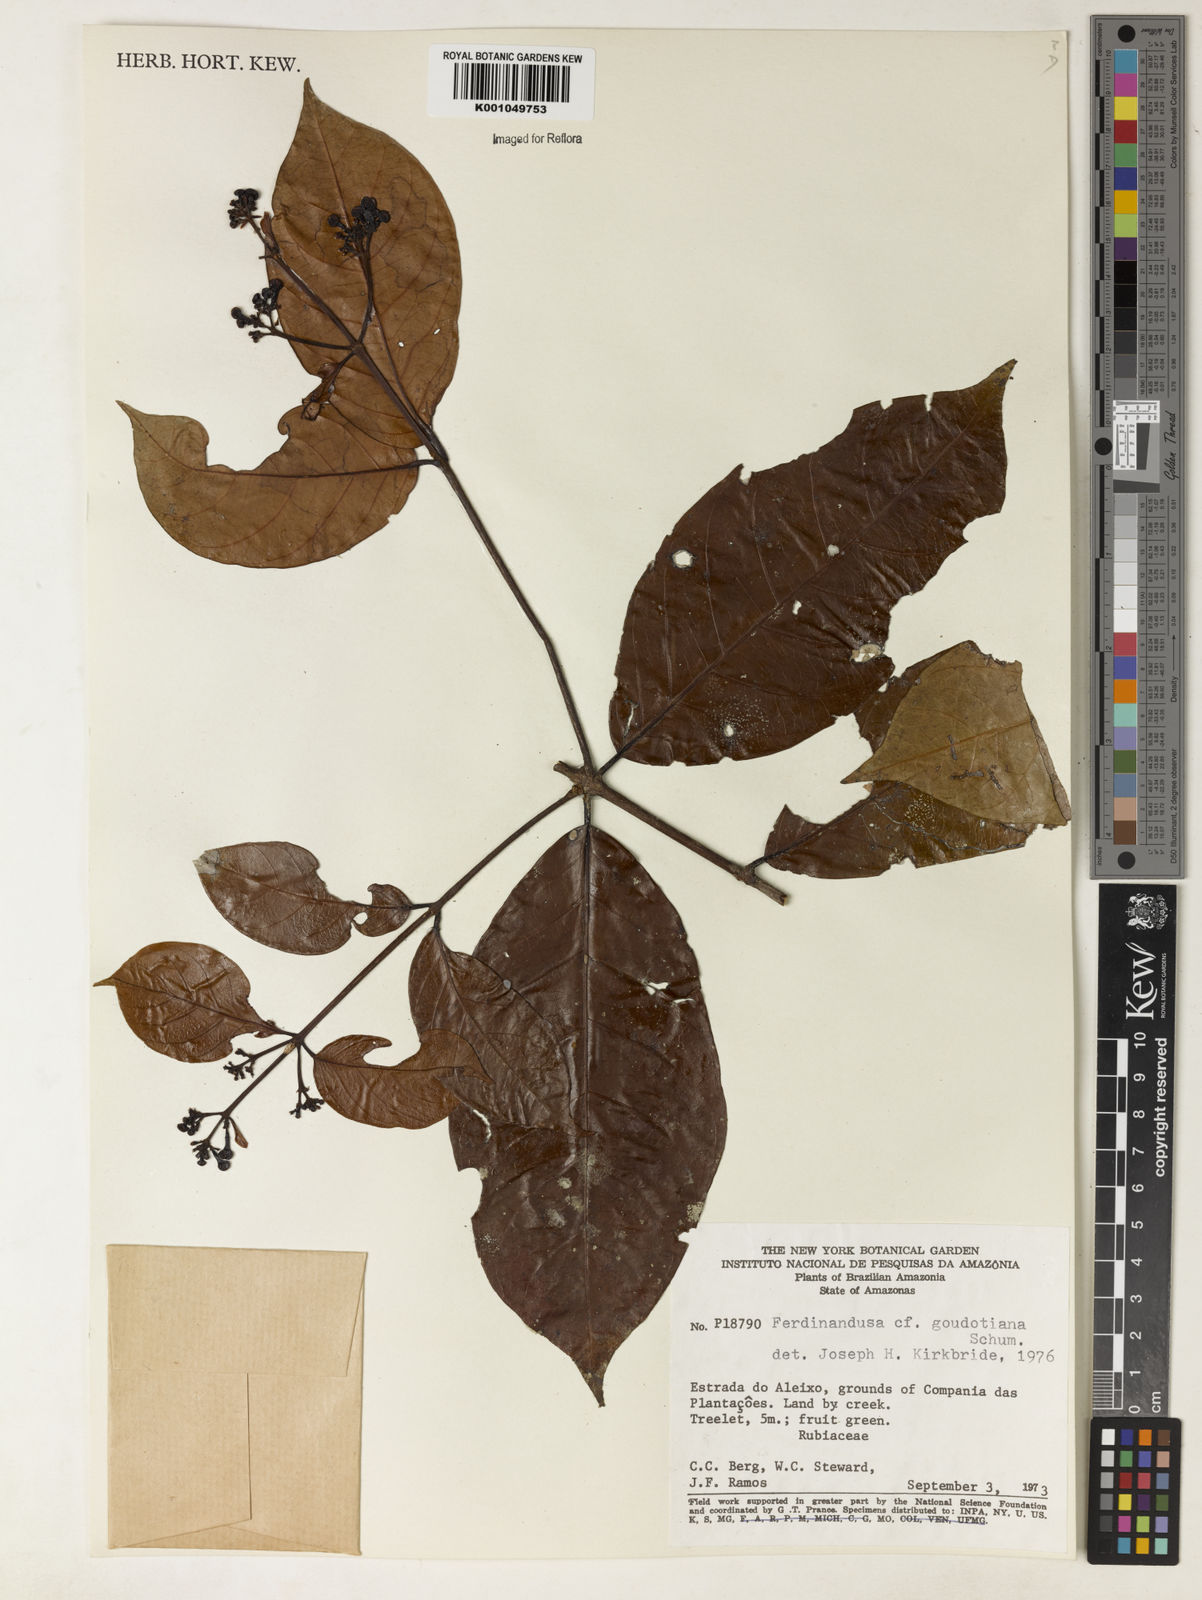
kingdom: Plantae
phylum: Tracheophyta
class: Magnoliopsida
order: Gentianales
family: Rubiaceae
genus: Ferdinandusa
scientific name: Ferdinandusa goudotiana
